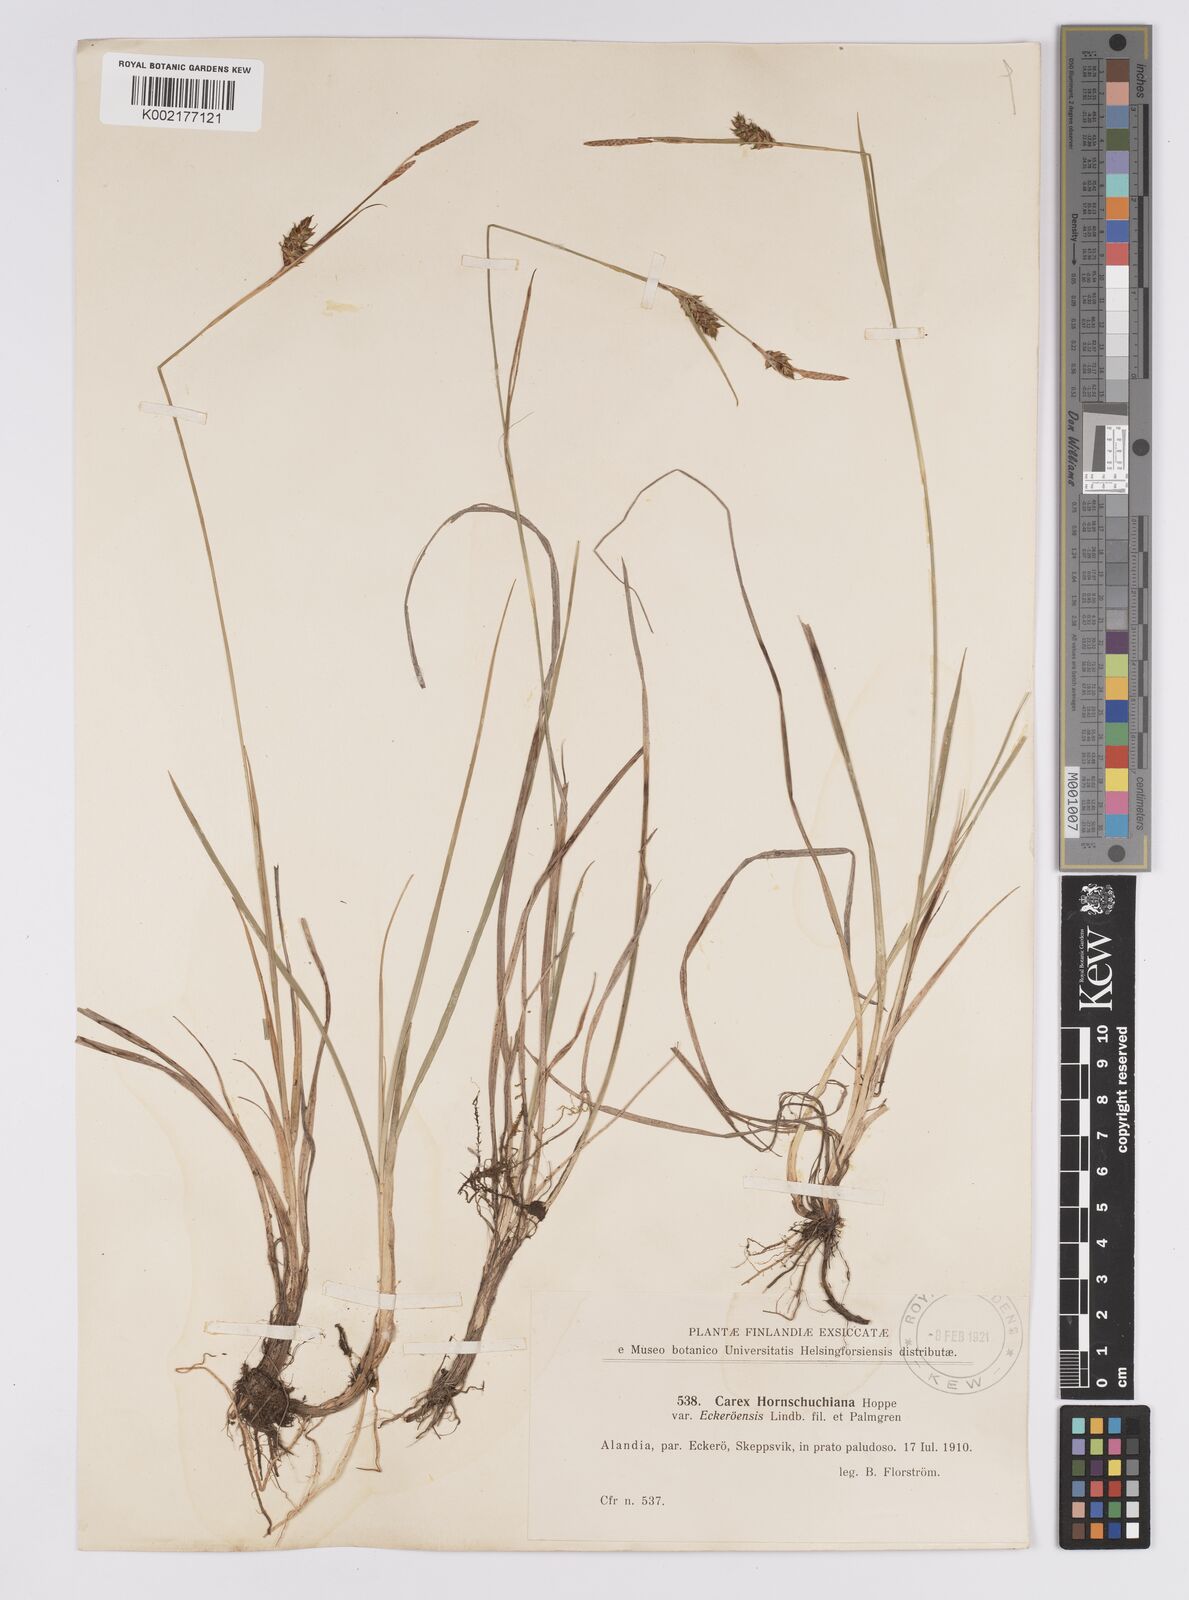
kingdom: Plantae
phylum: Tracheophyta
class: Liliopsida
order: Poales
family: Cyperaceae
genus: Carex
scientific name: Carex hostiana
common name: Tawny sedge
